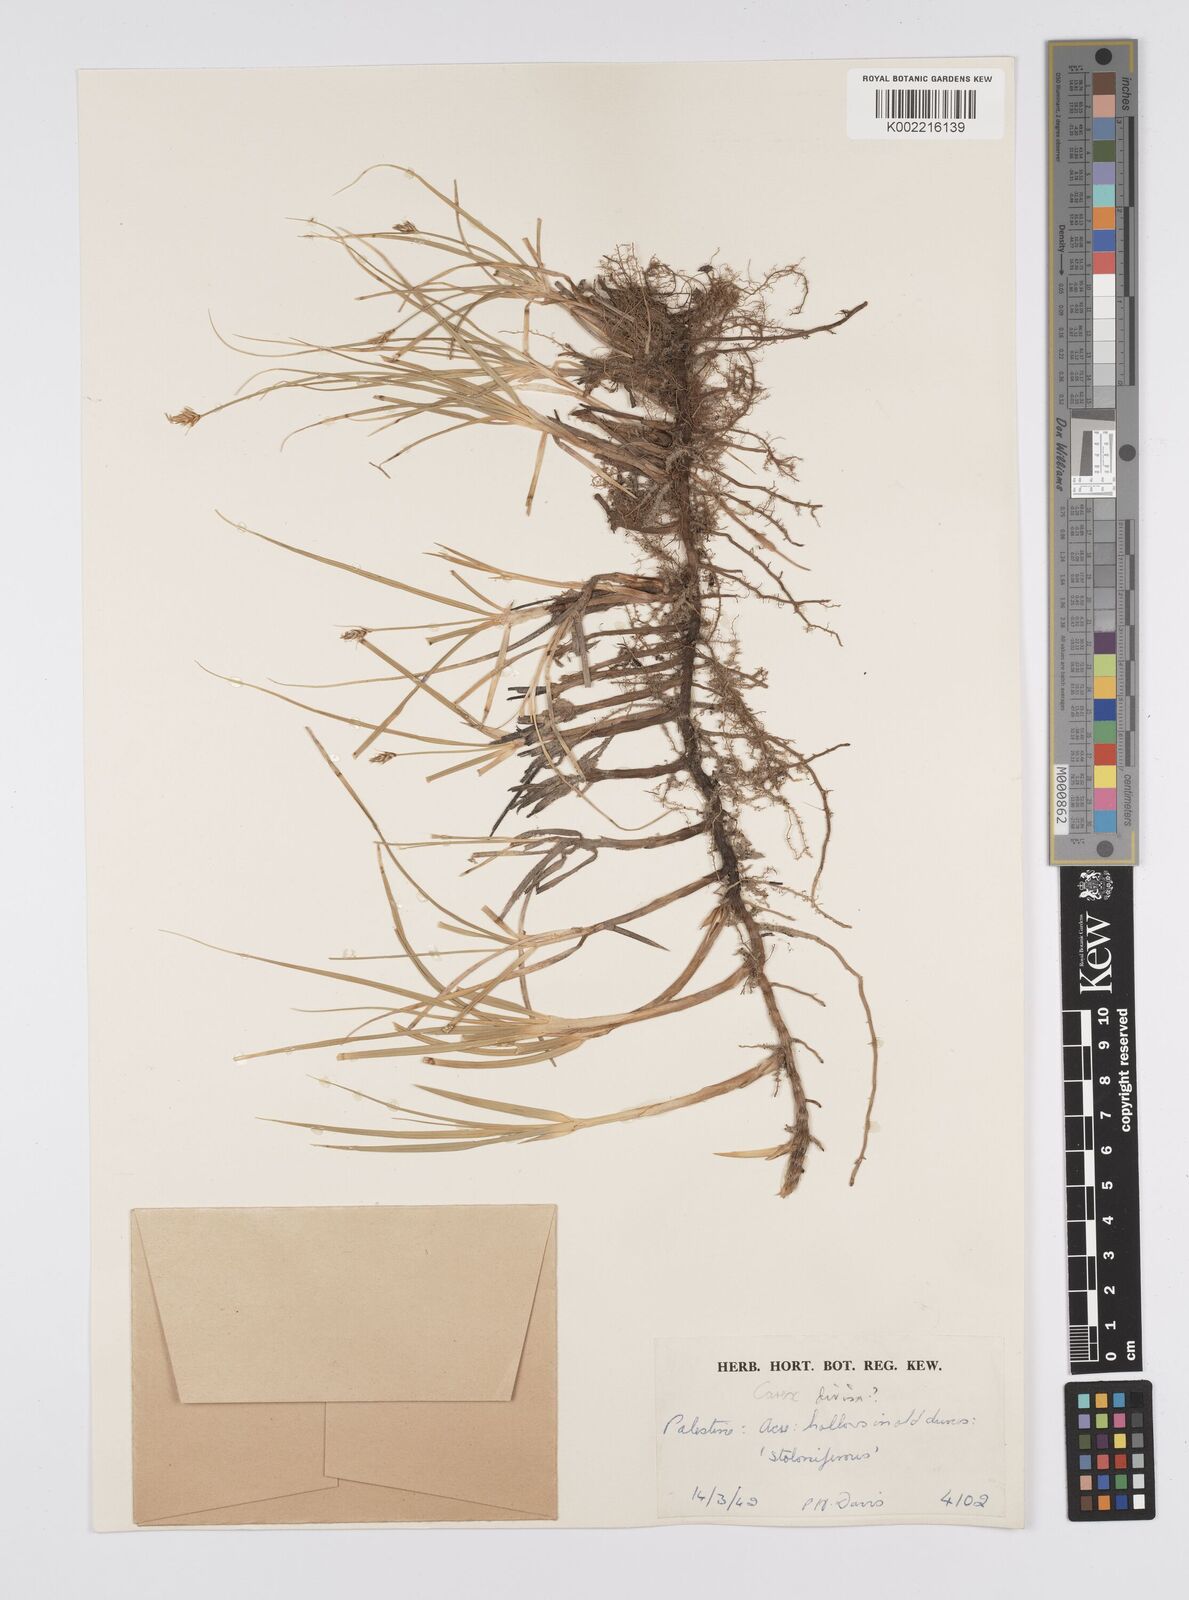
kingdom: Plantae
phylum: Tracheophyta
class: Liliopsida
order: Poales
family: Cyperaceae
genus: Carex
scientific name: Carex divisa
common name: Divided sedge
